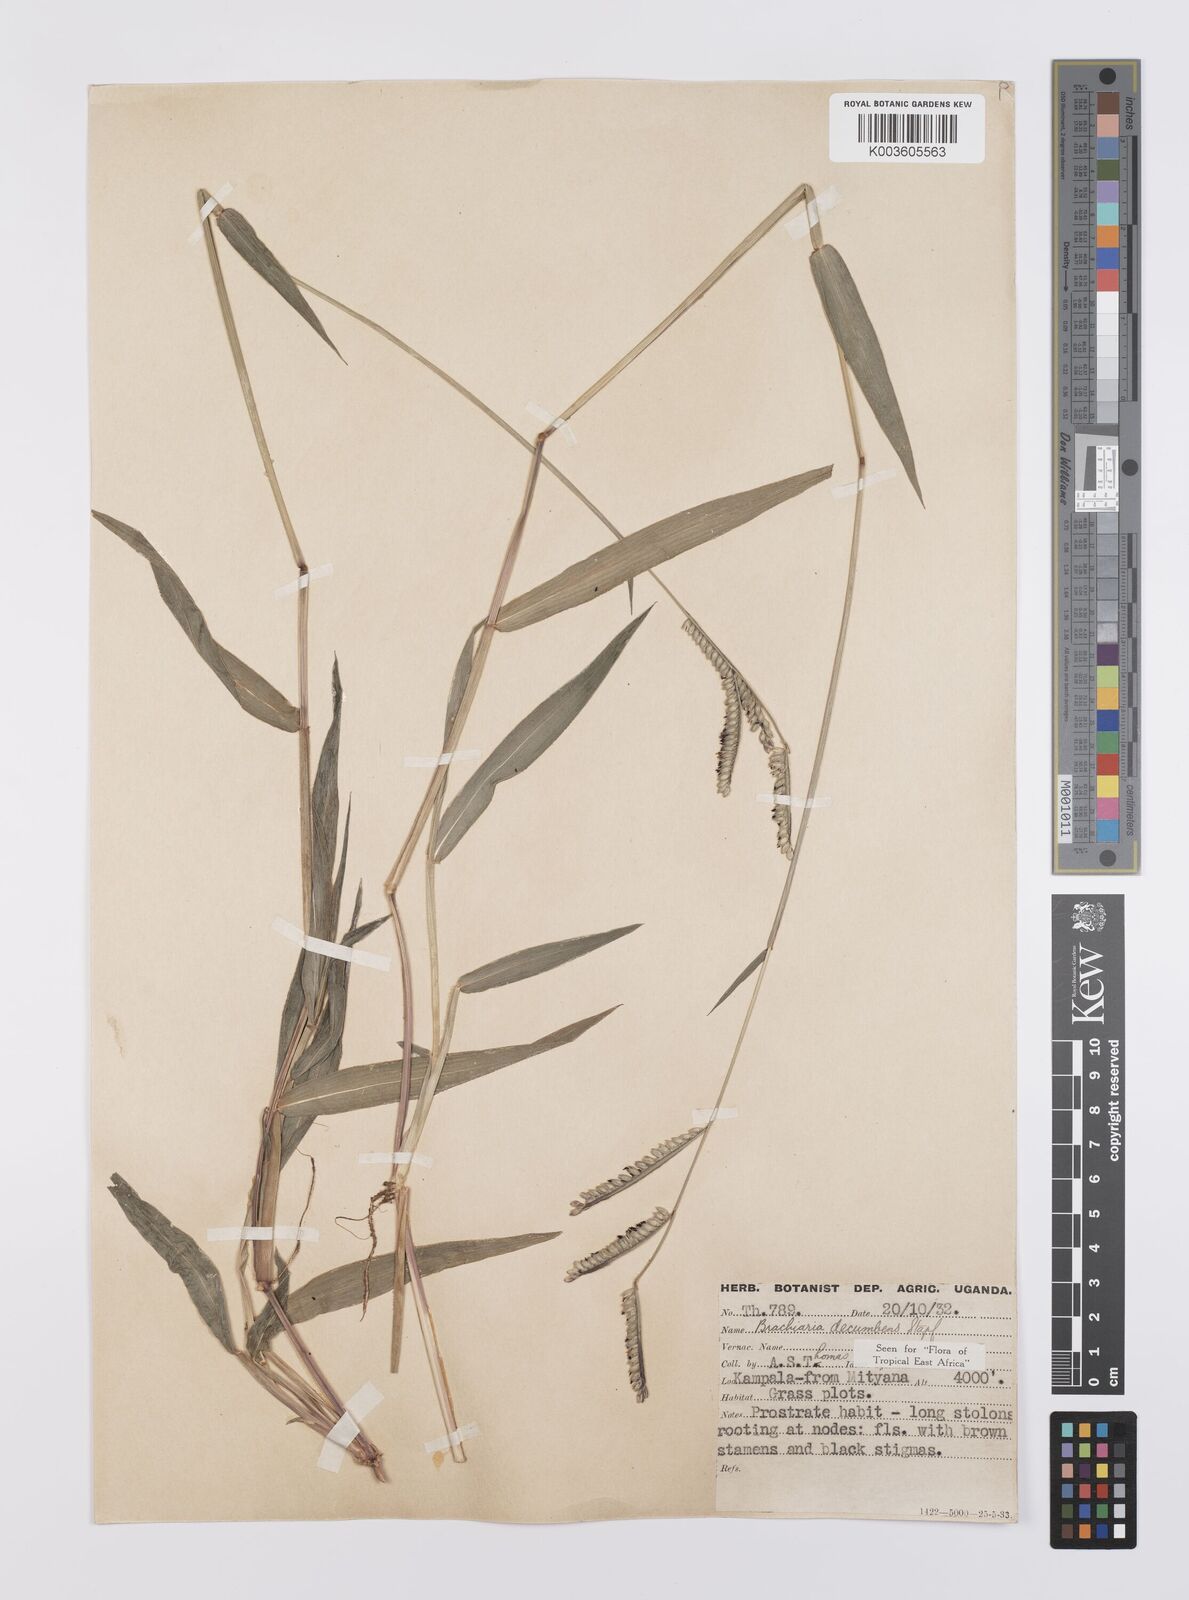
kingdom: Plantae
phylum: Tracheophyta
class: Liliopsida
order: Poales
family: Poaceae
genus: Urochloa
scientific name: Urochloa eminii
